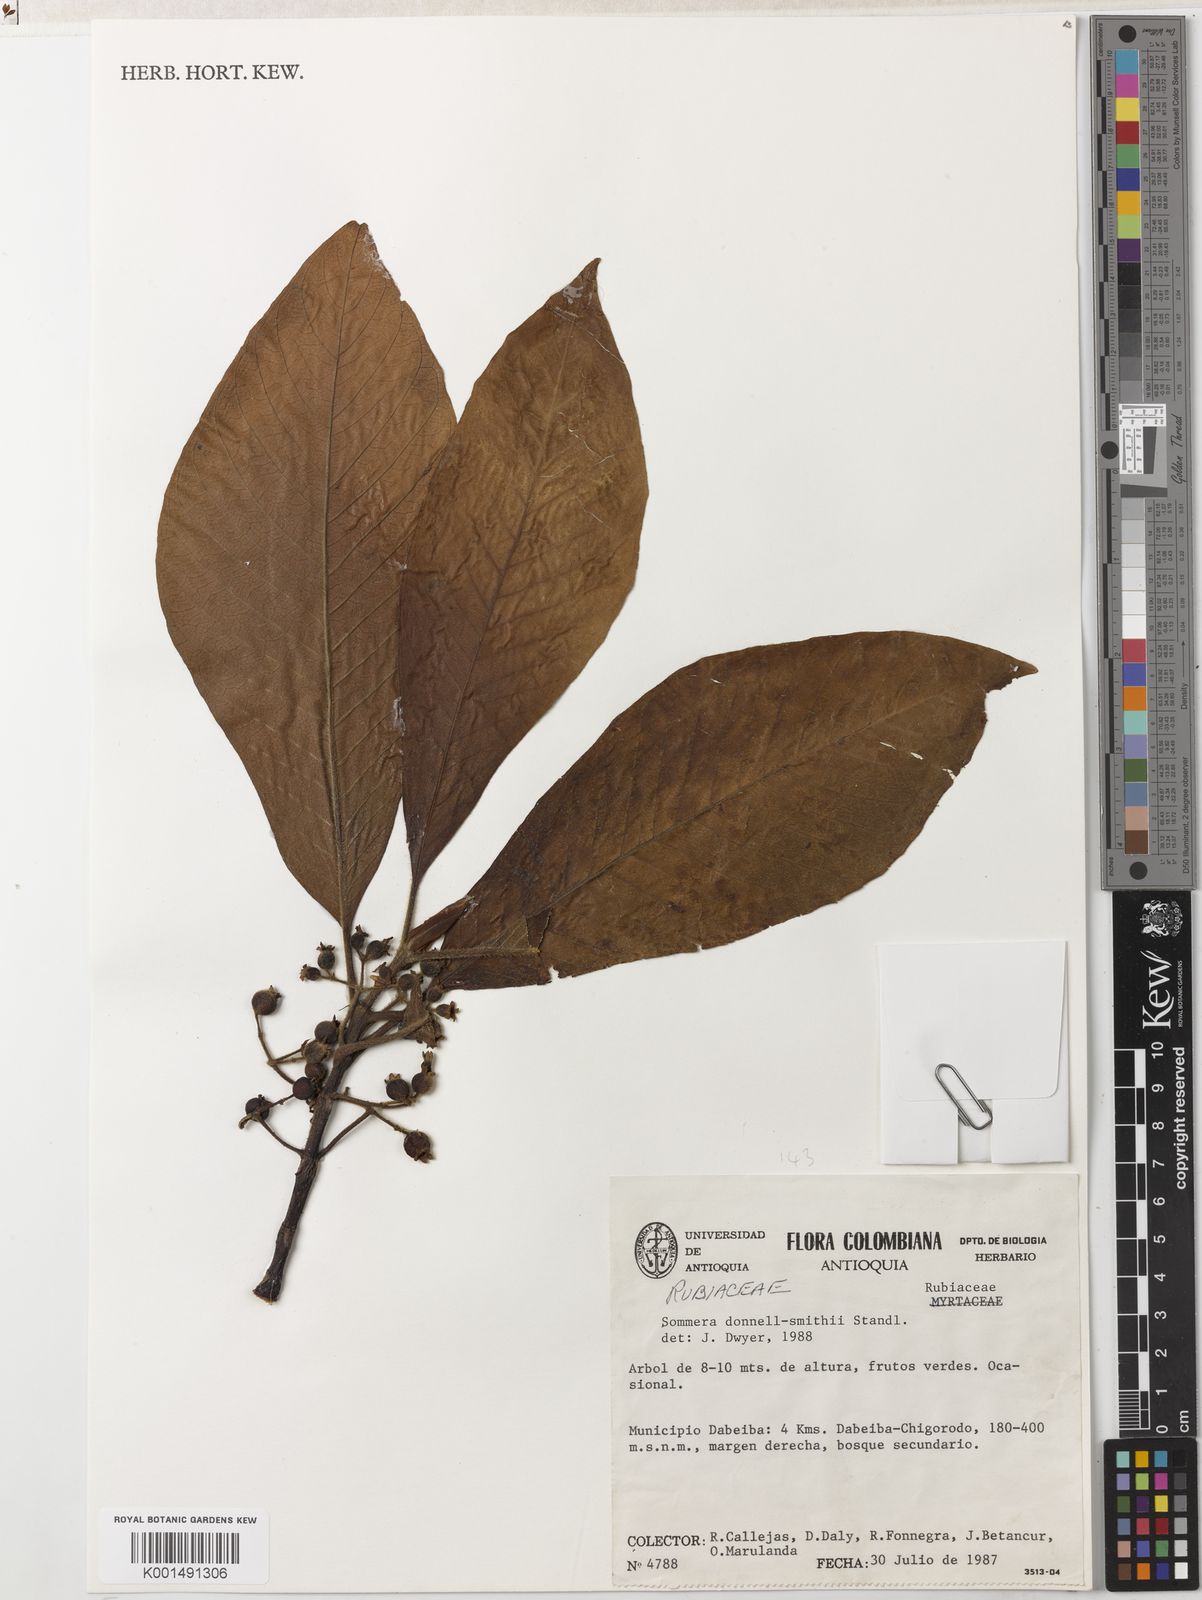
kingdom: Plantae
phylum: Tracheophyta
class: Magnoliopsida
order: Gentianales
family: Rubiaceae
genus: Sommera
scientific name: Sommera donnell-smithii
